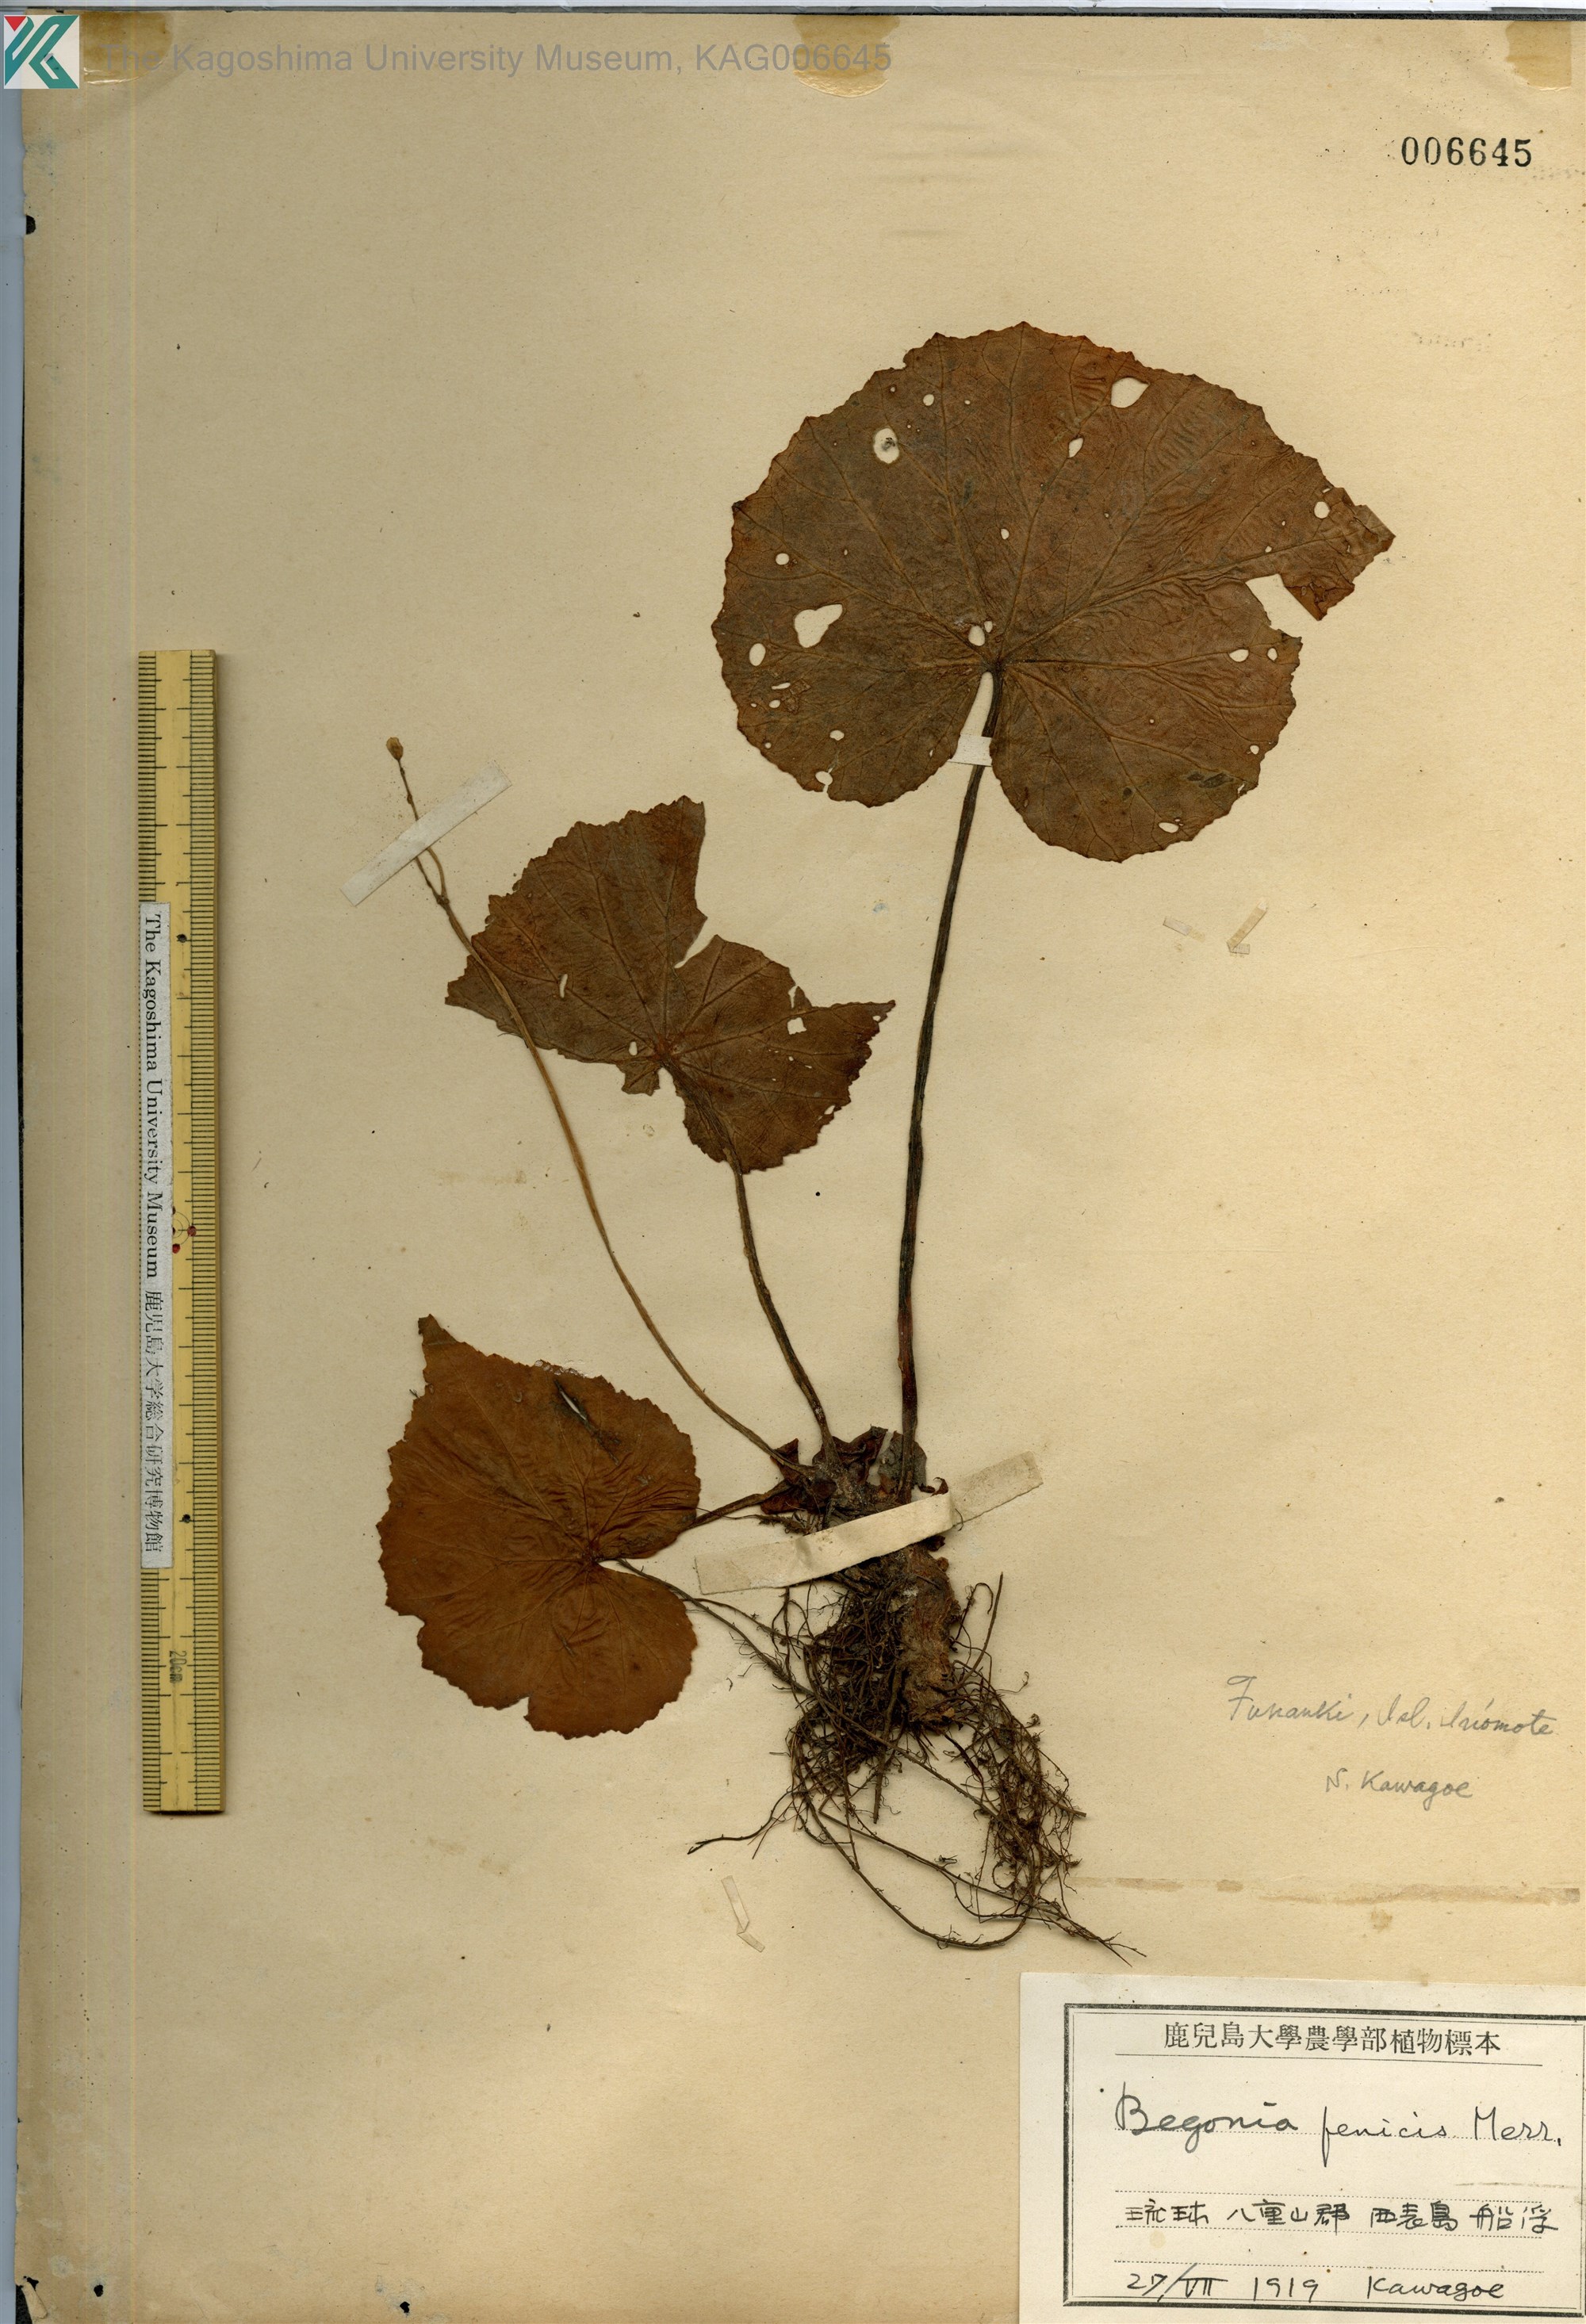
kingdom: Plantae
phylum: Tracheophyta
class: Magnoliopsida
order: Cucurbitales
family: Begoniaceae
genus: Begonia
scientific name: Begonia fenicis
